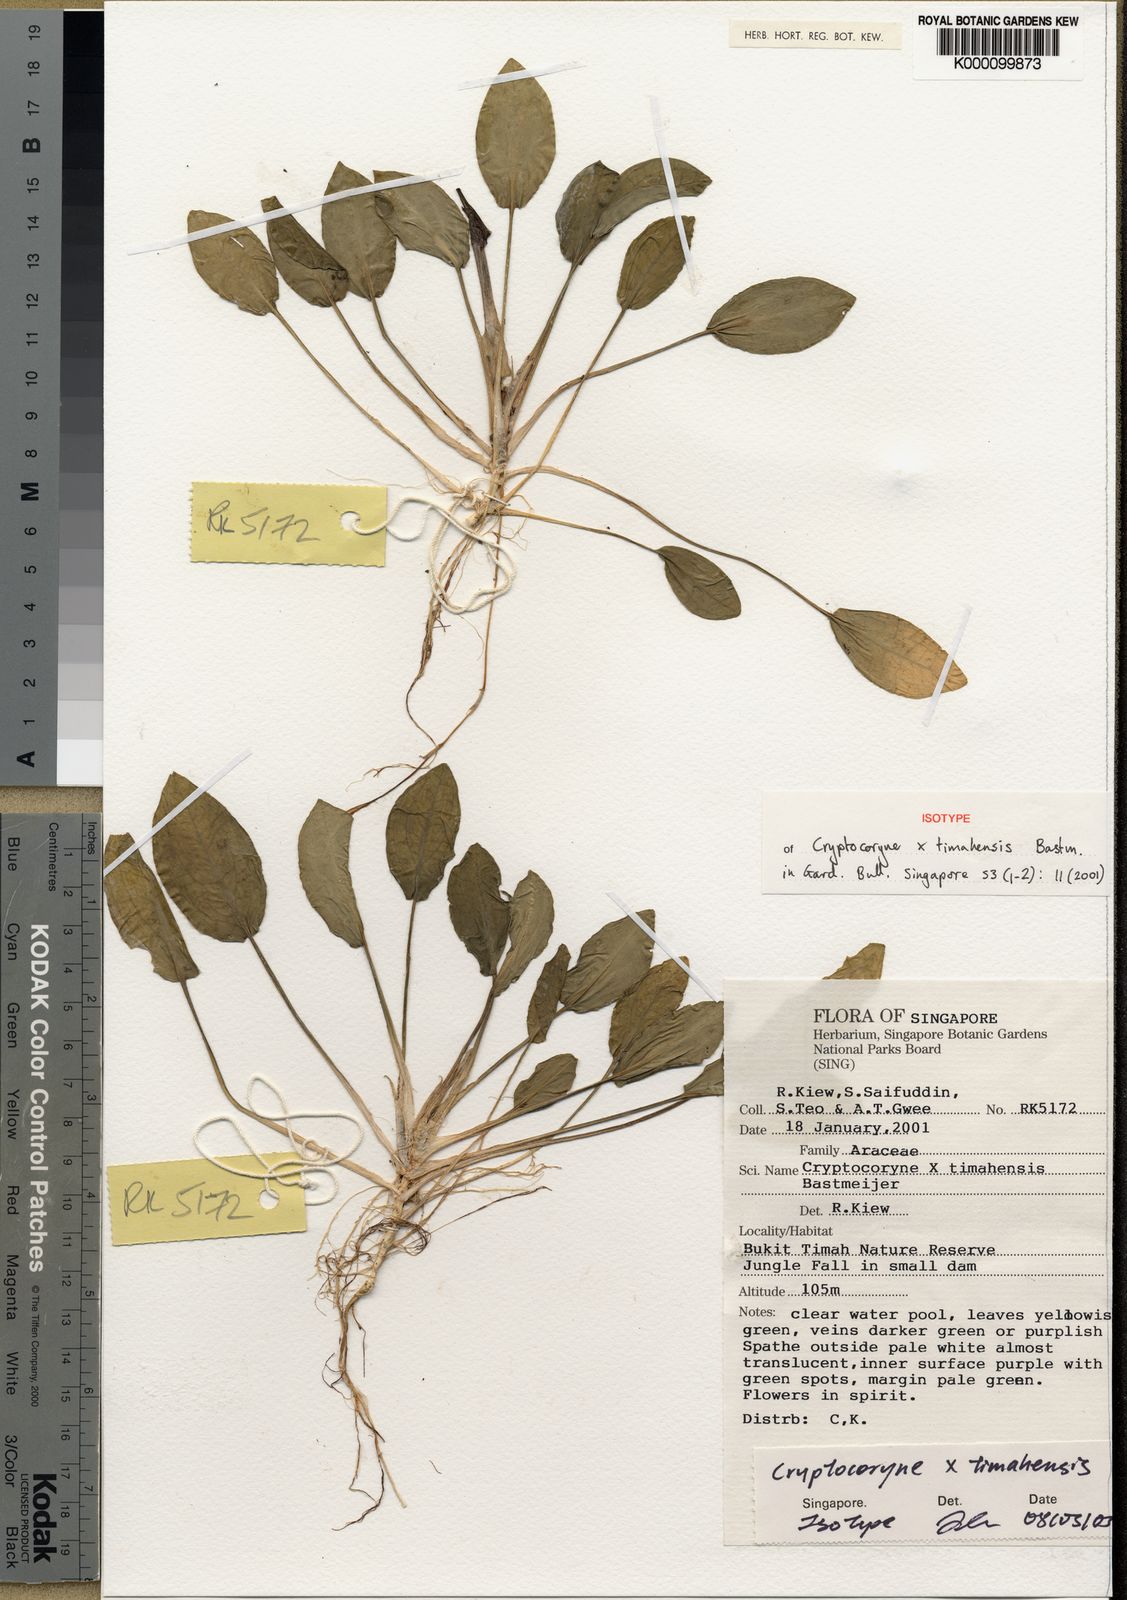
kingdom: Plantae
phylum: Tracheophyta
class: Liliopsida
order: Alismatales
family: Araceae
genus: Cryptocoryne
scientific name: Cryptocoryne timahensis
